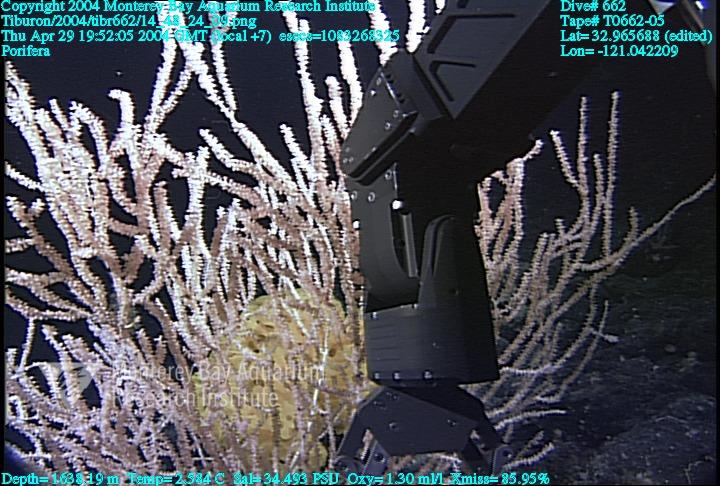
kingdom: Animalia
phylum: Porifera
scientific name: Porifera
